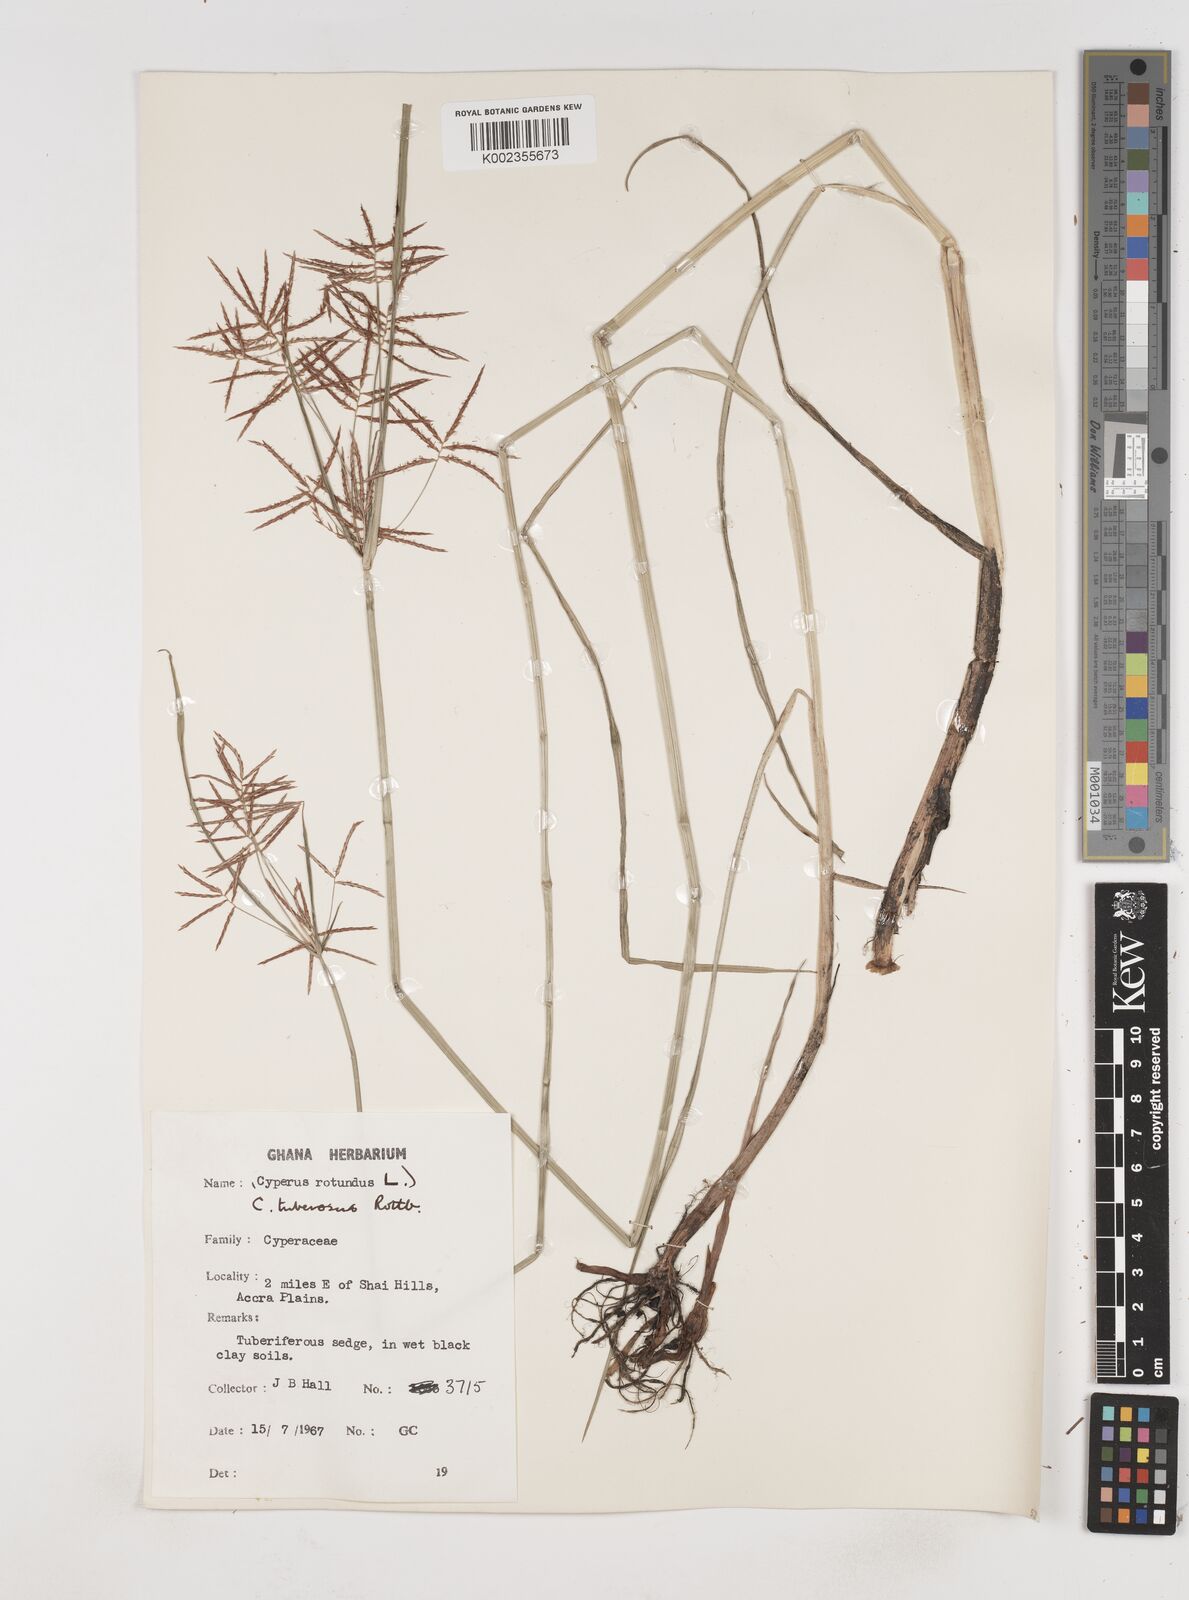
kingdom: Plantae
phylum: Tracheophyta
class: Liliopsida
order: Poales
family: Cyperaceae
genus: Cyperus
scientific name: Cyperus tuberosus
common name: Nut grass
